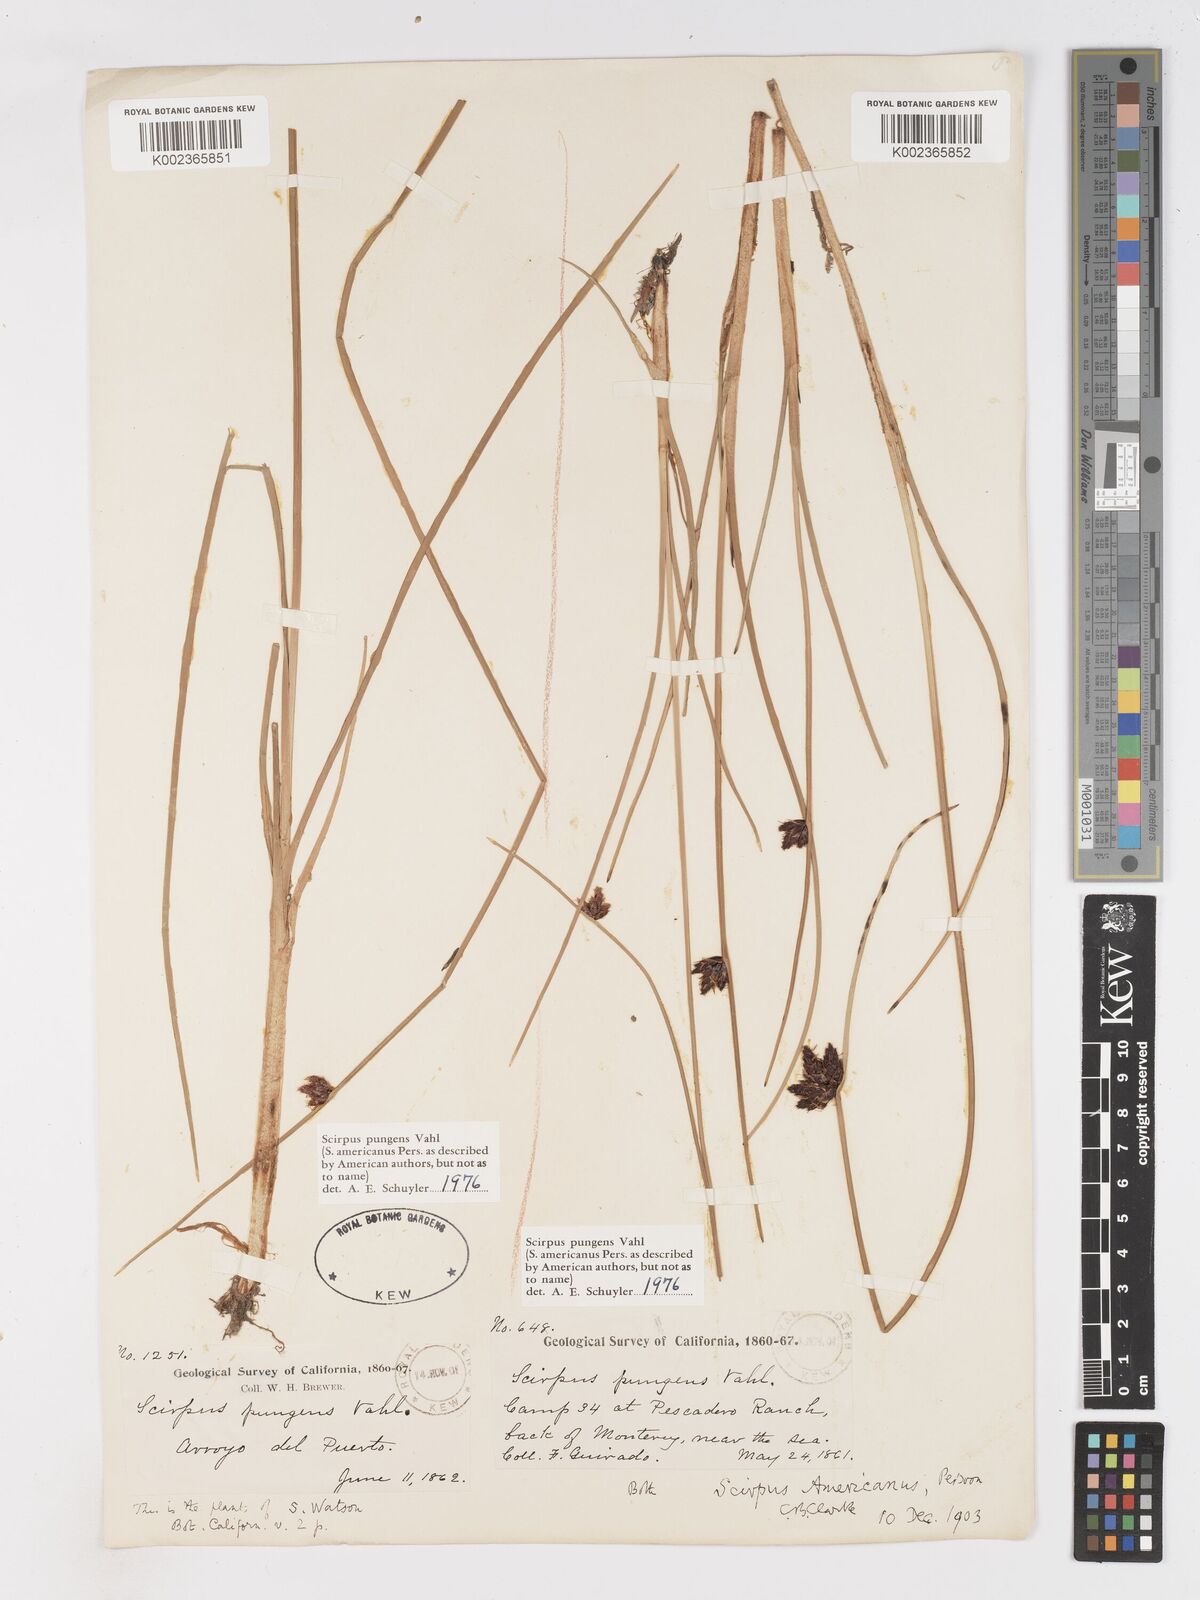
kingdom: Plantae
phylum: Tracheophyta
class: Liliopsida
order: Poales
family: Cyperaceae
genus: Schoenoplectus
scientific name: Schoenoplectus pungens
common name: Sharp club-rush
